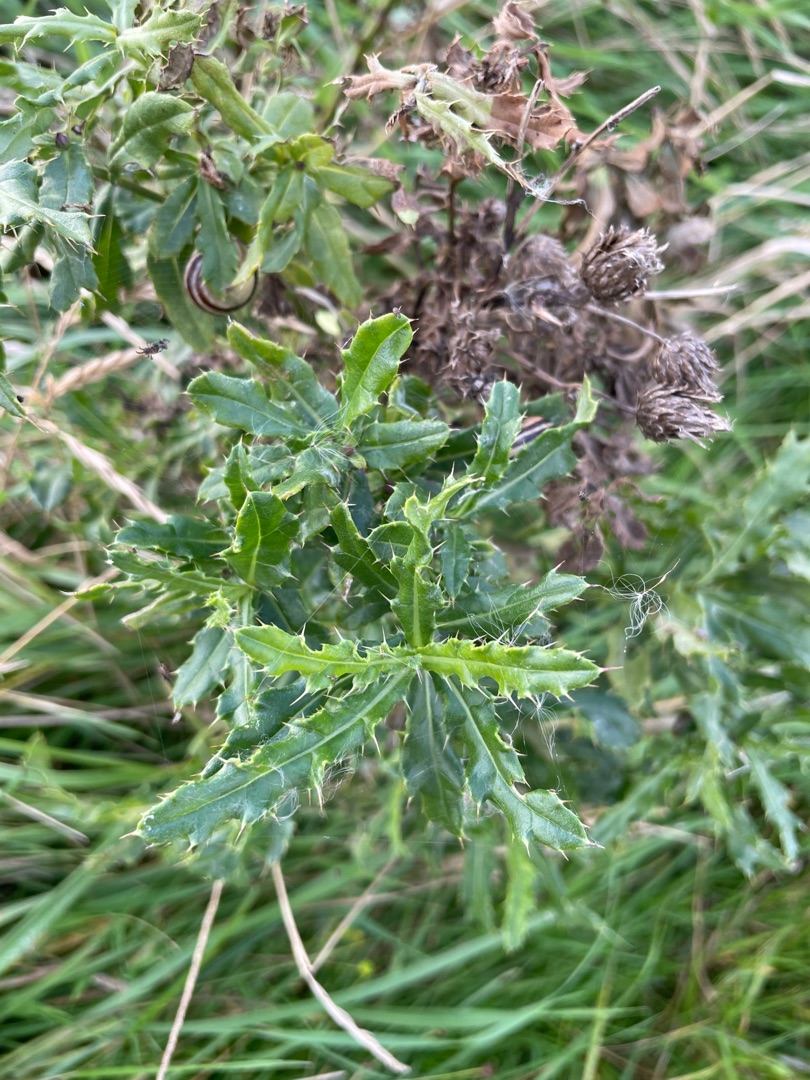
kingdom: Plantae
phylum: Tracheophyta
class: Magnoliopsida
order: Asterales
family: Asteraceae
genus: Cirsium
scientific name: Cirsium arvense
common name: Ager-tidsel
